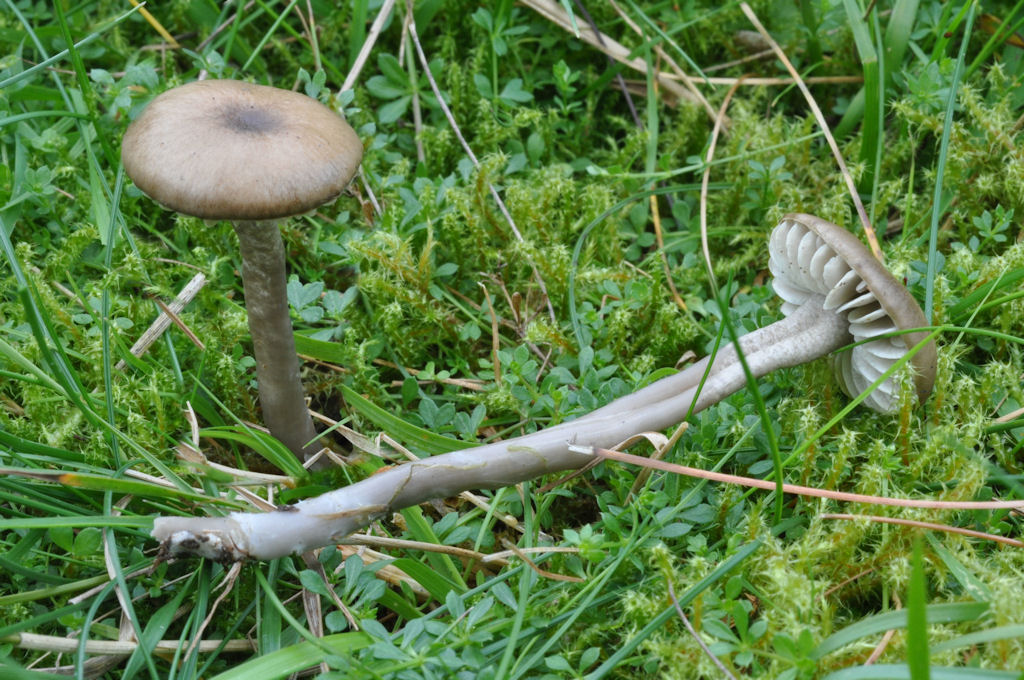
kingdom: Fungi
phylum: Basidiomycota
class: Agaricomycetes
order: Agaricales
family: Hygrophoraceae
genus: Gliophorus
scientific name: Gliophorus irrigatus
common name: slimet vokshat
